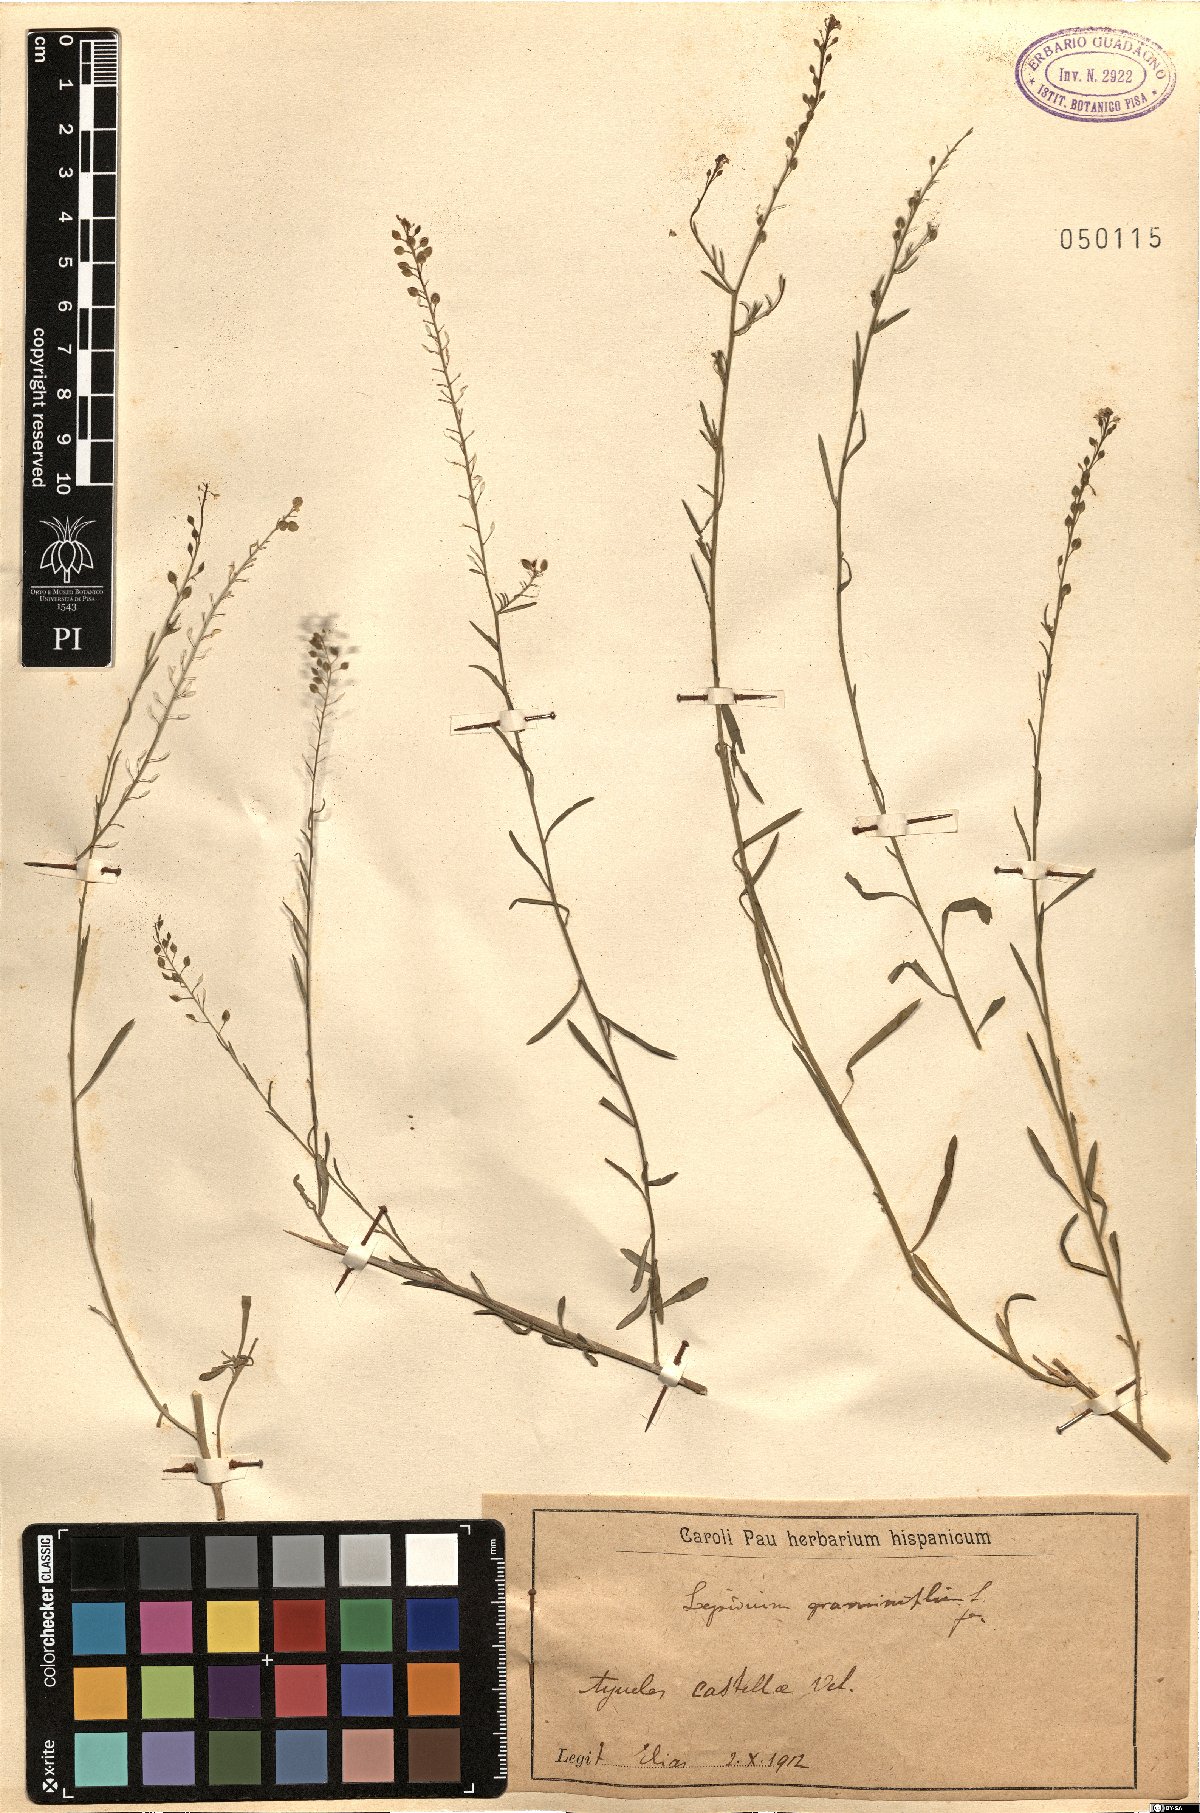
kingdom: Plantae
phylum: Tracheophyta
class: Magnoliopsida
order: Brassicales
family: Brassicaceae
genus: Lepidium
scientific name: Lepidium graminifolium
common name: Tall pepperwort
